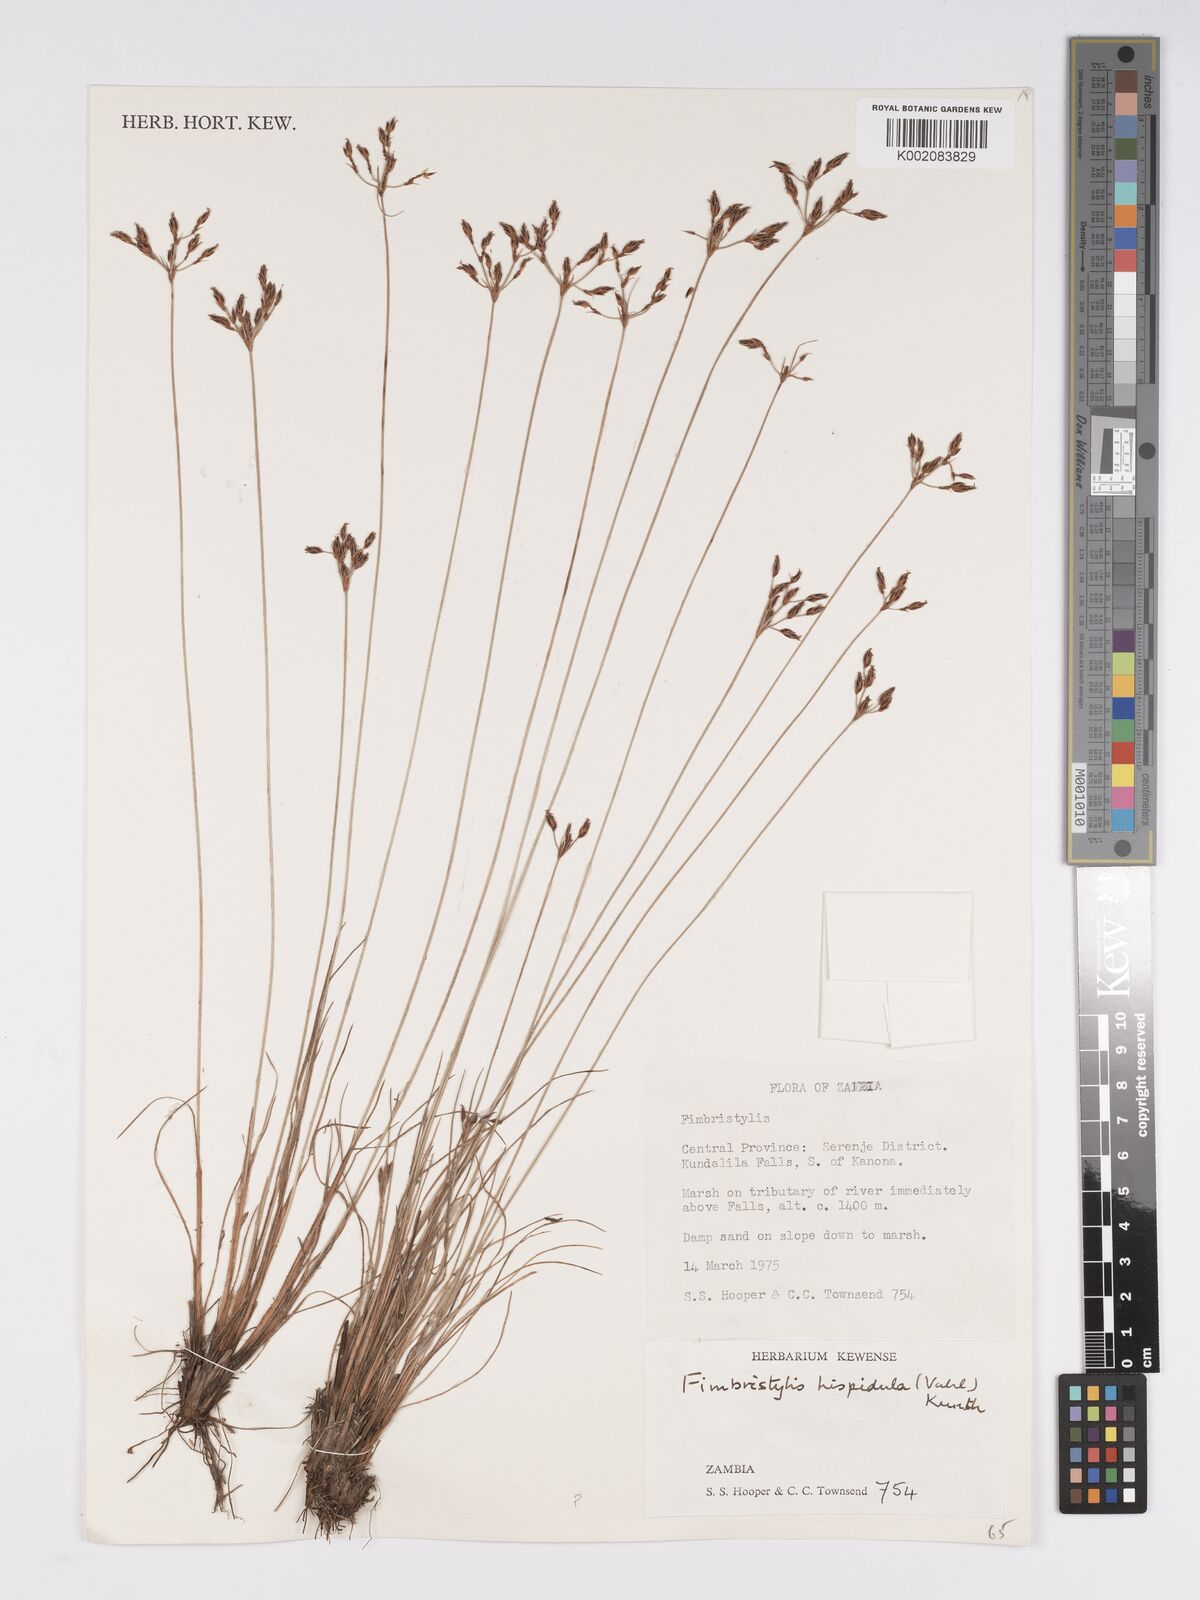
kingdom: Plantae
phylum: Tracheophyta
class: Liliopsida
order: Poales
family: Cyperaceae
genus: Bulbostylis
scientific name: Bulbostylis hispidula
